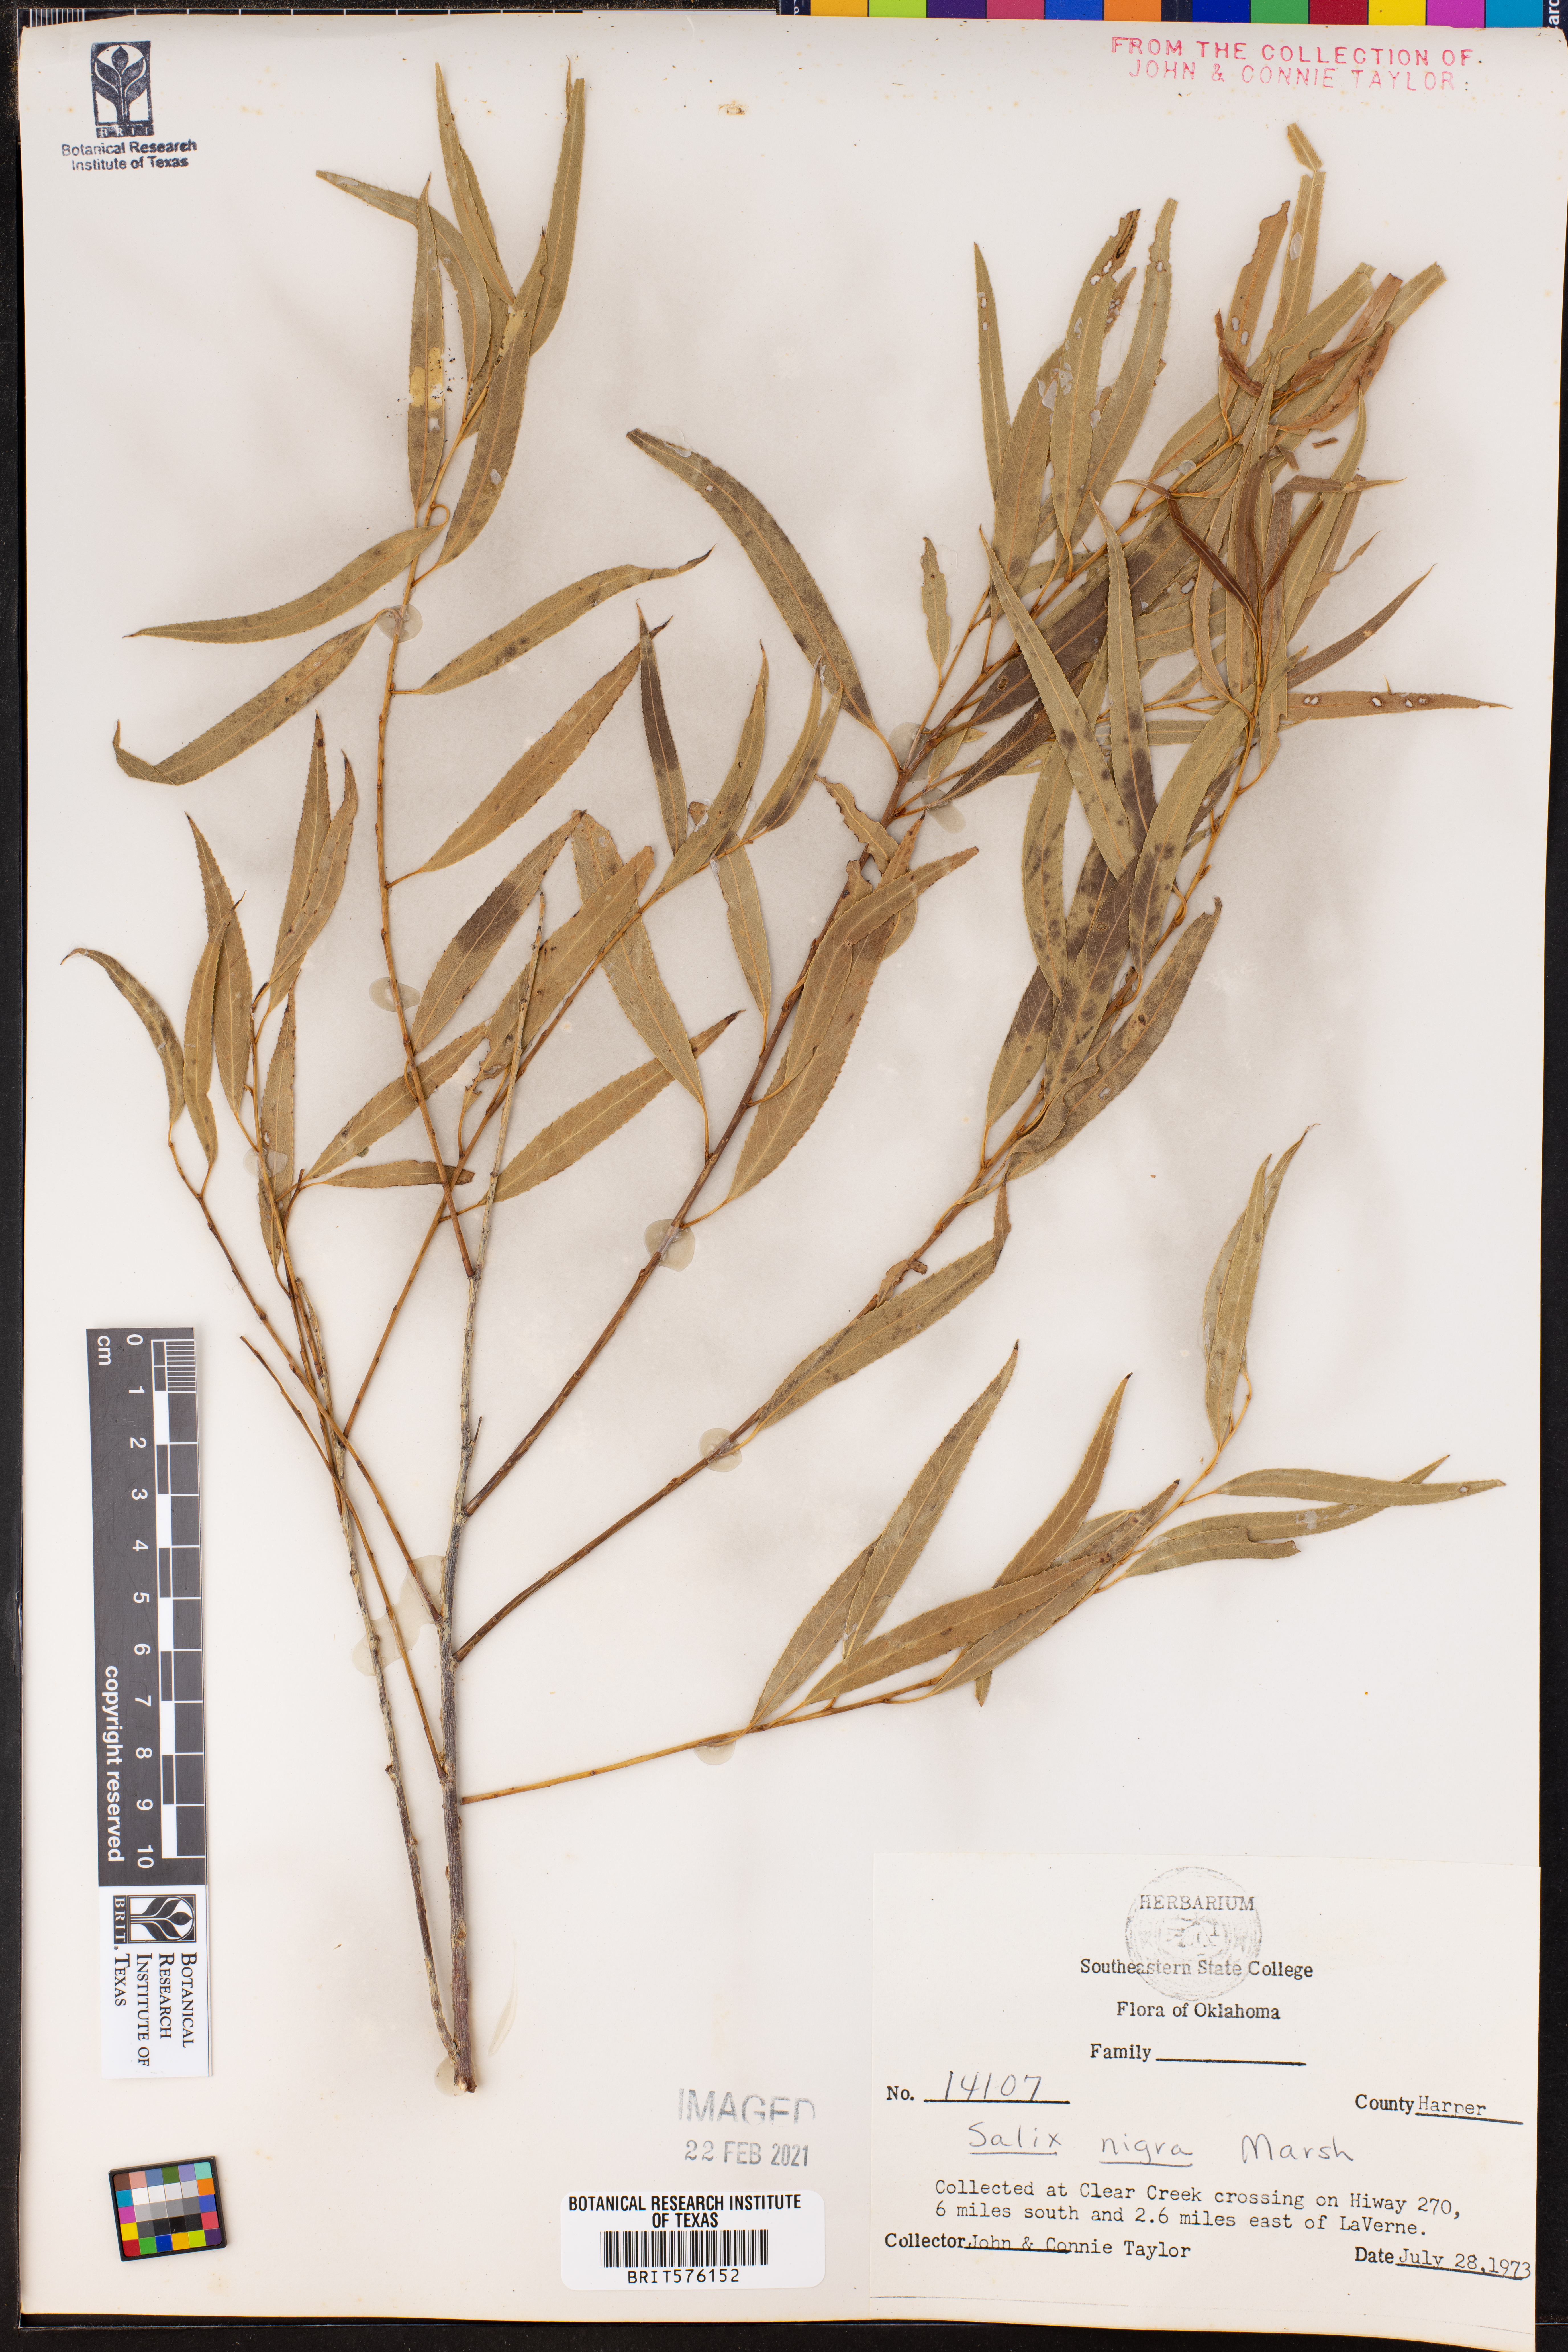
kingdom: Plantae
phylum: Tracheophyta
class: Magnoliopsida
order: Malpighiales
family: Salicaceae
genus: Salix
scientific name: Salix nigra
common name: Black willow
